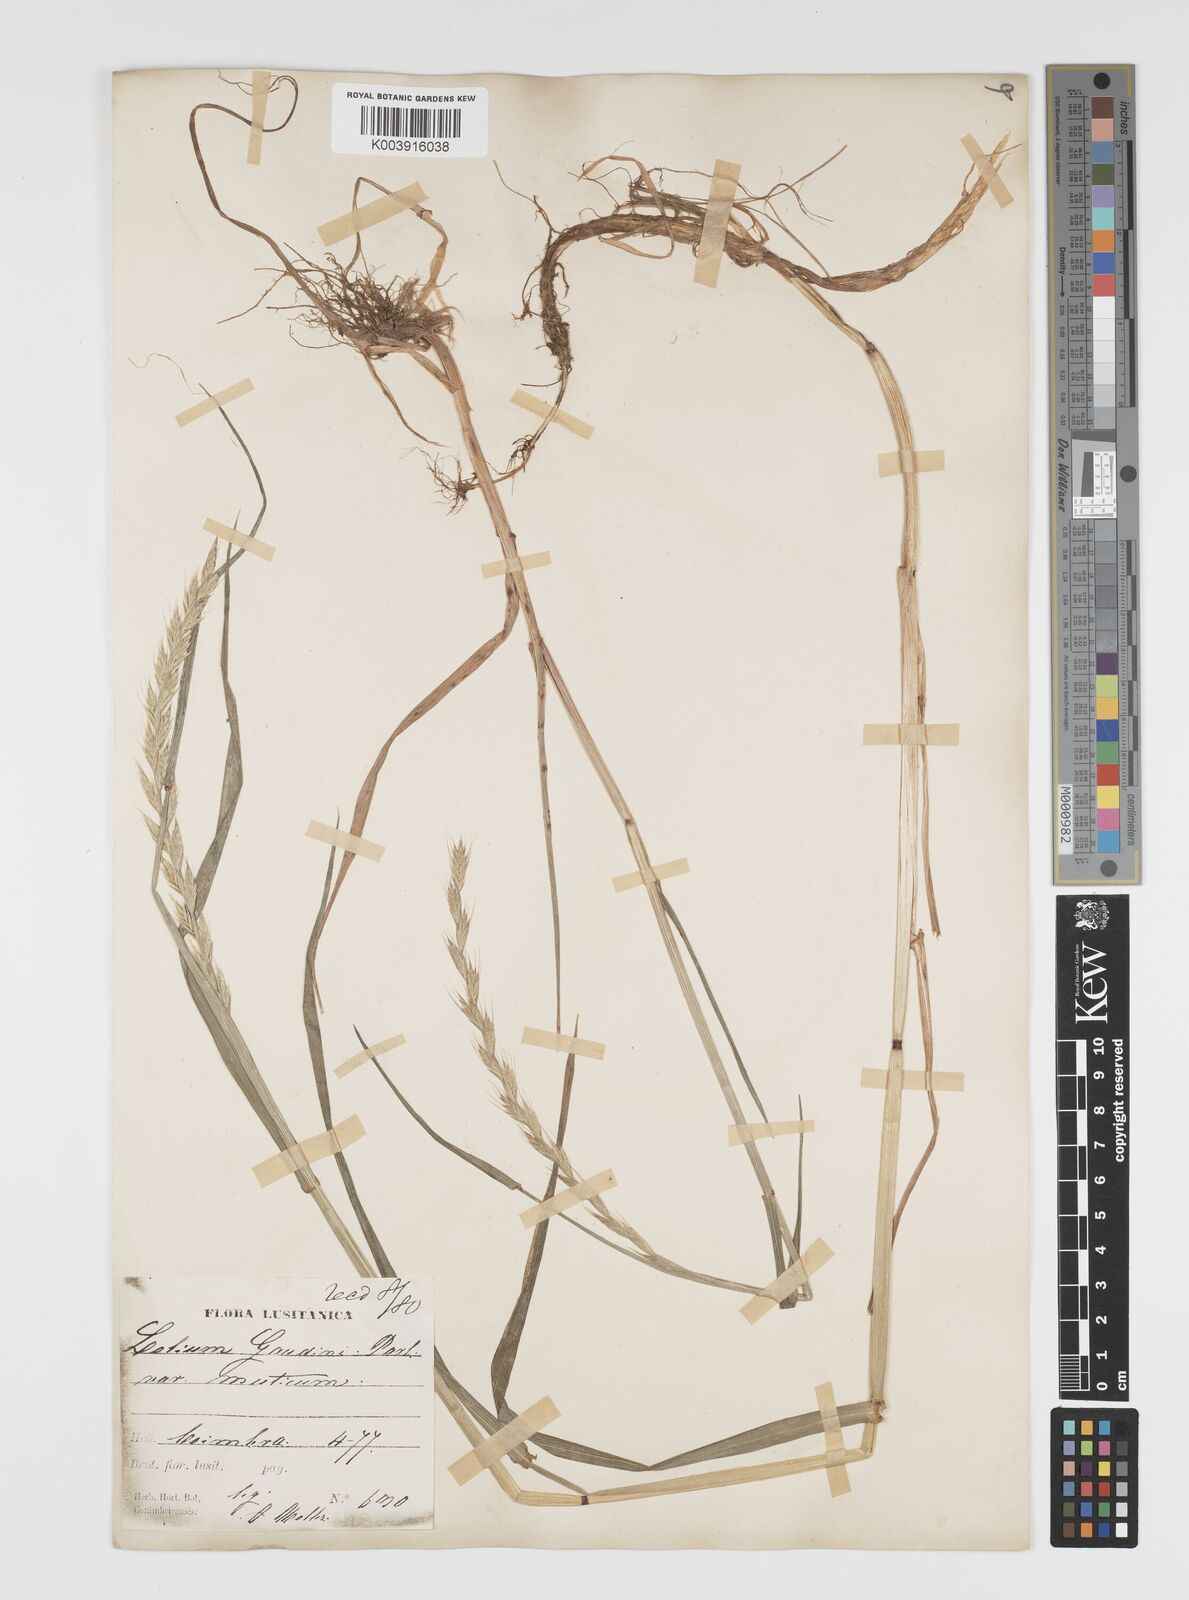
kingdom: Plantae
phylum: Tracheophyta
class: Liliopsida
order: Poales
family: Poaceae
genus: Lolium
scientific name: Lolium multiflorum
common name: Annual ryegrass
